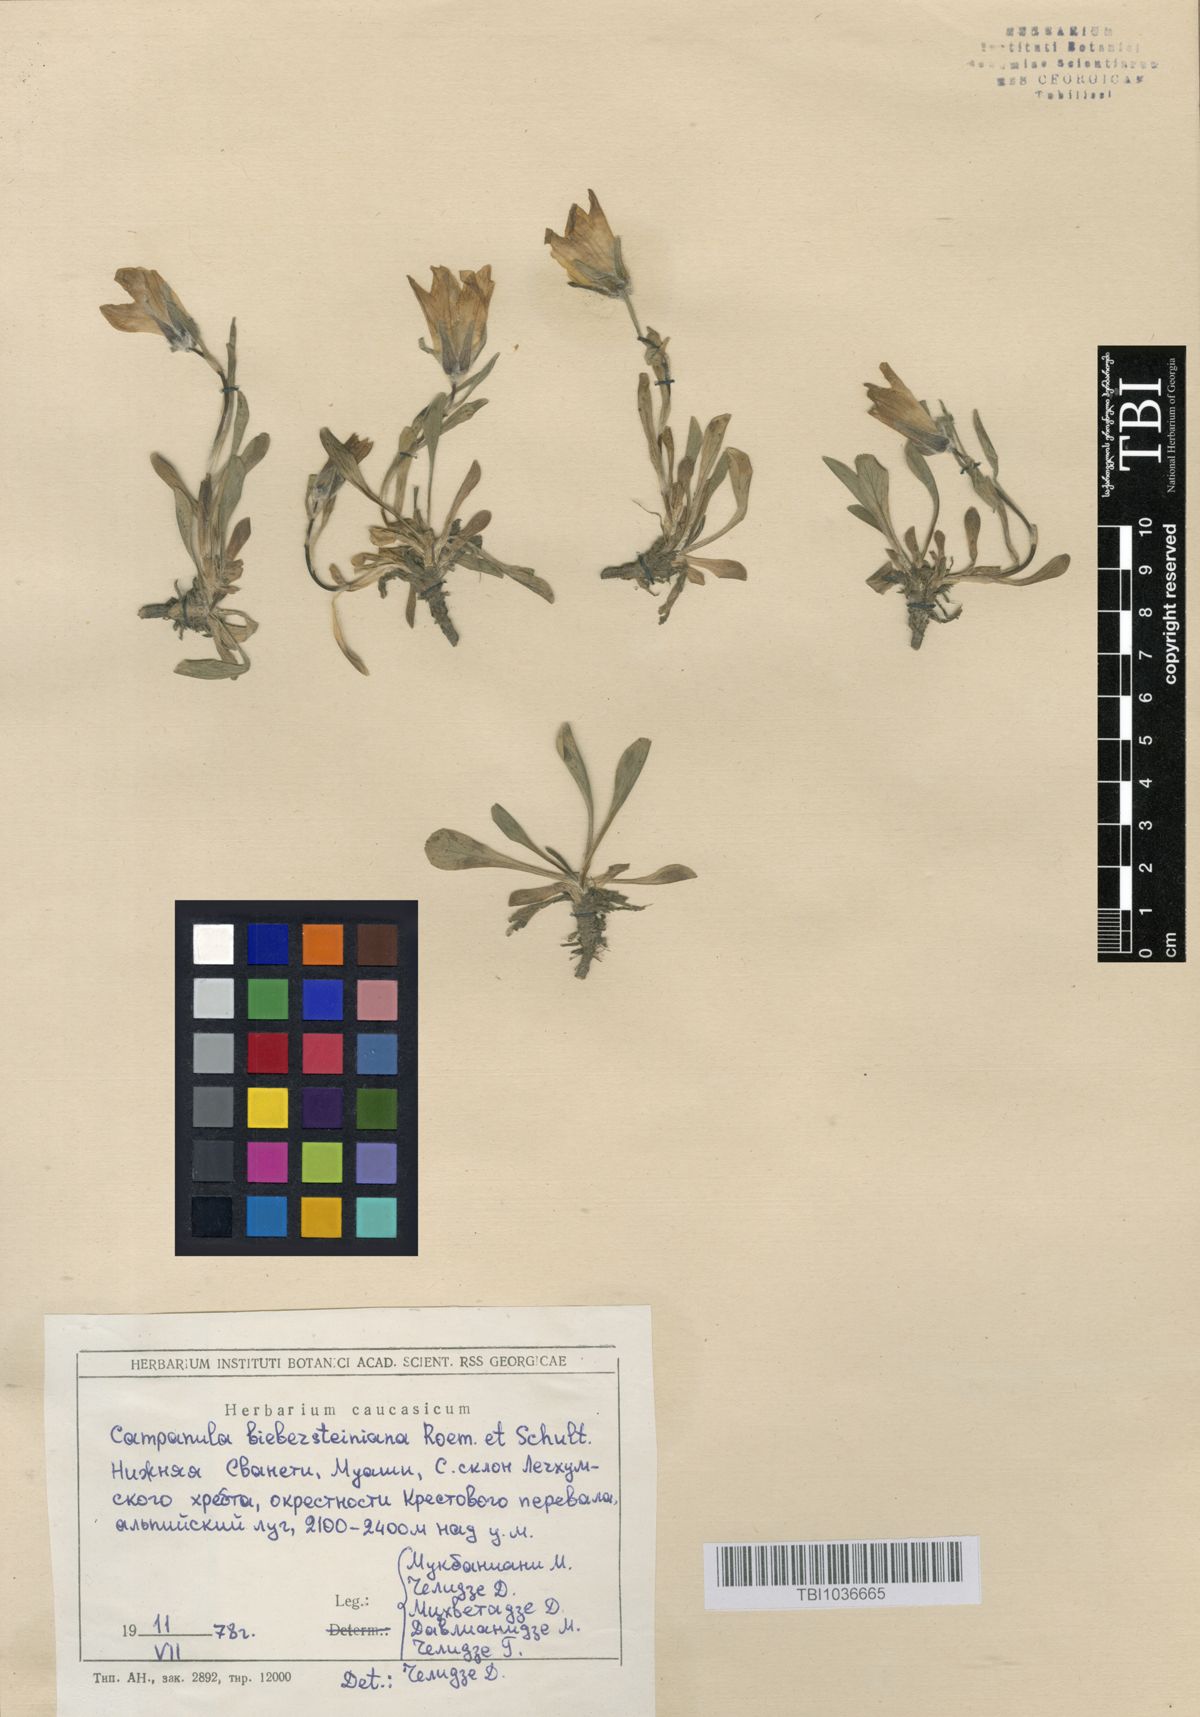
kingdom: Plantae
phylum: Tracheophyta
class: Magnoliopsida
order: Asterales
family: Campanulaceae
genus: Campanula
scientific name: Campanula tridentata
